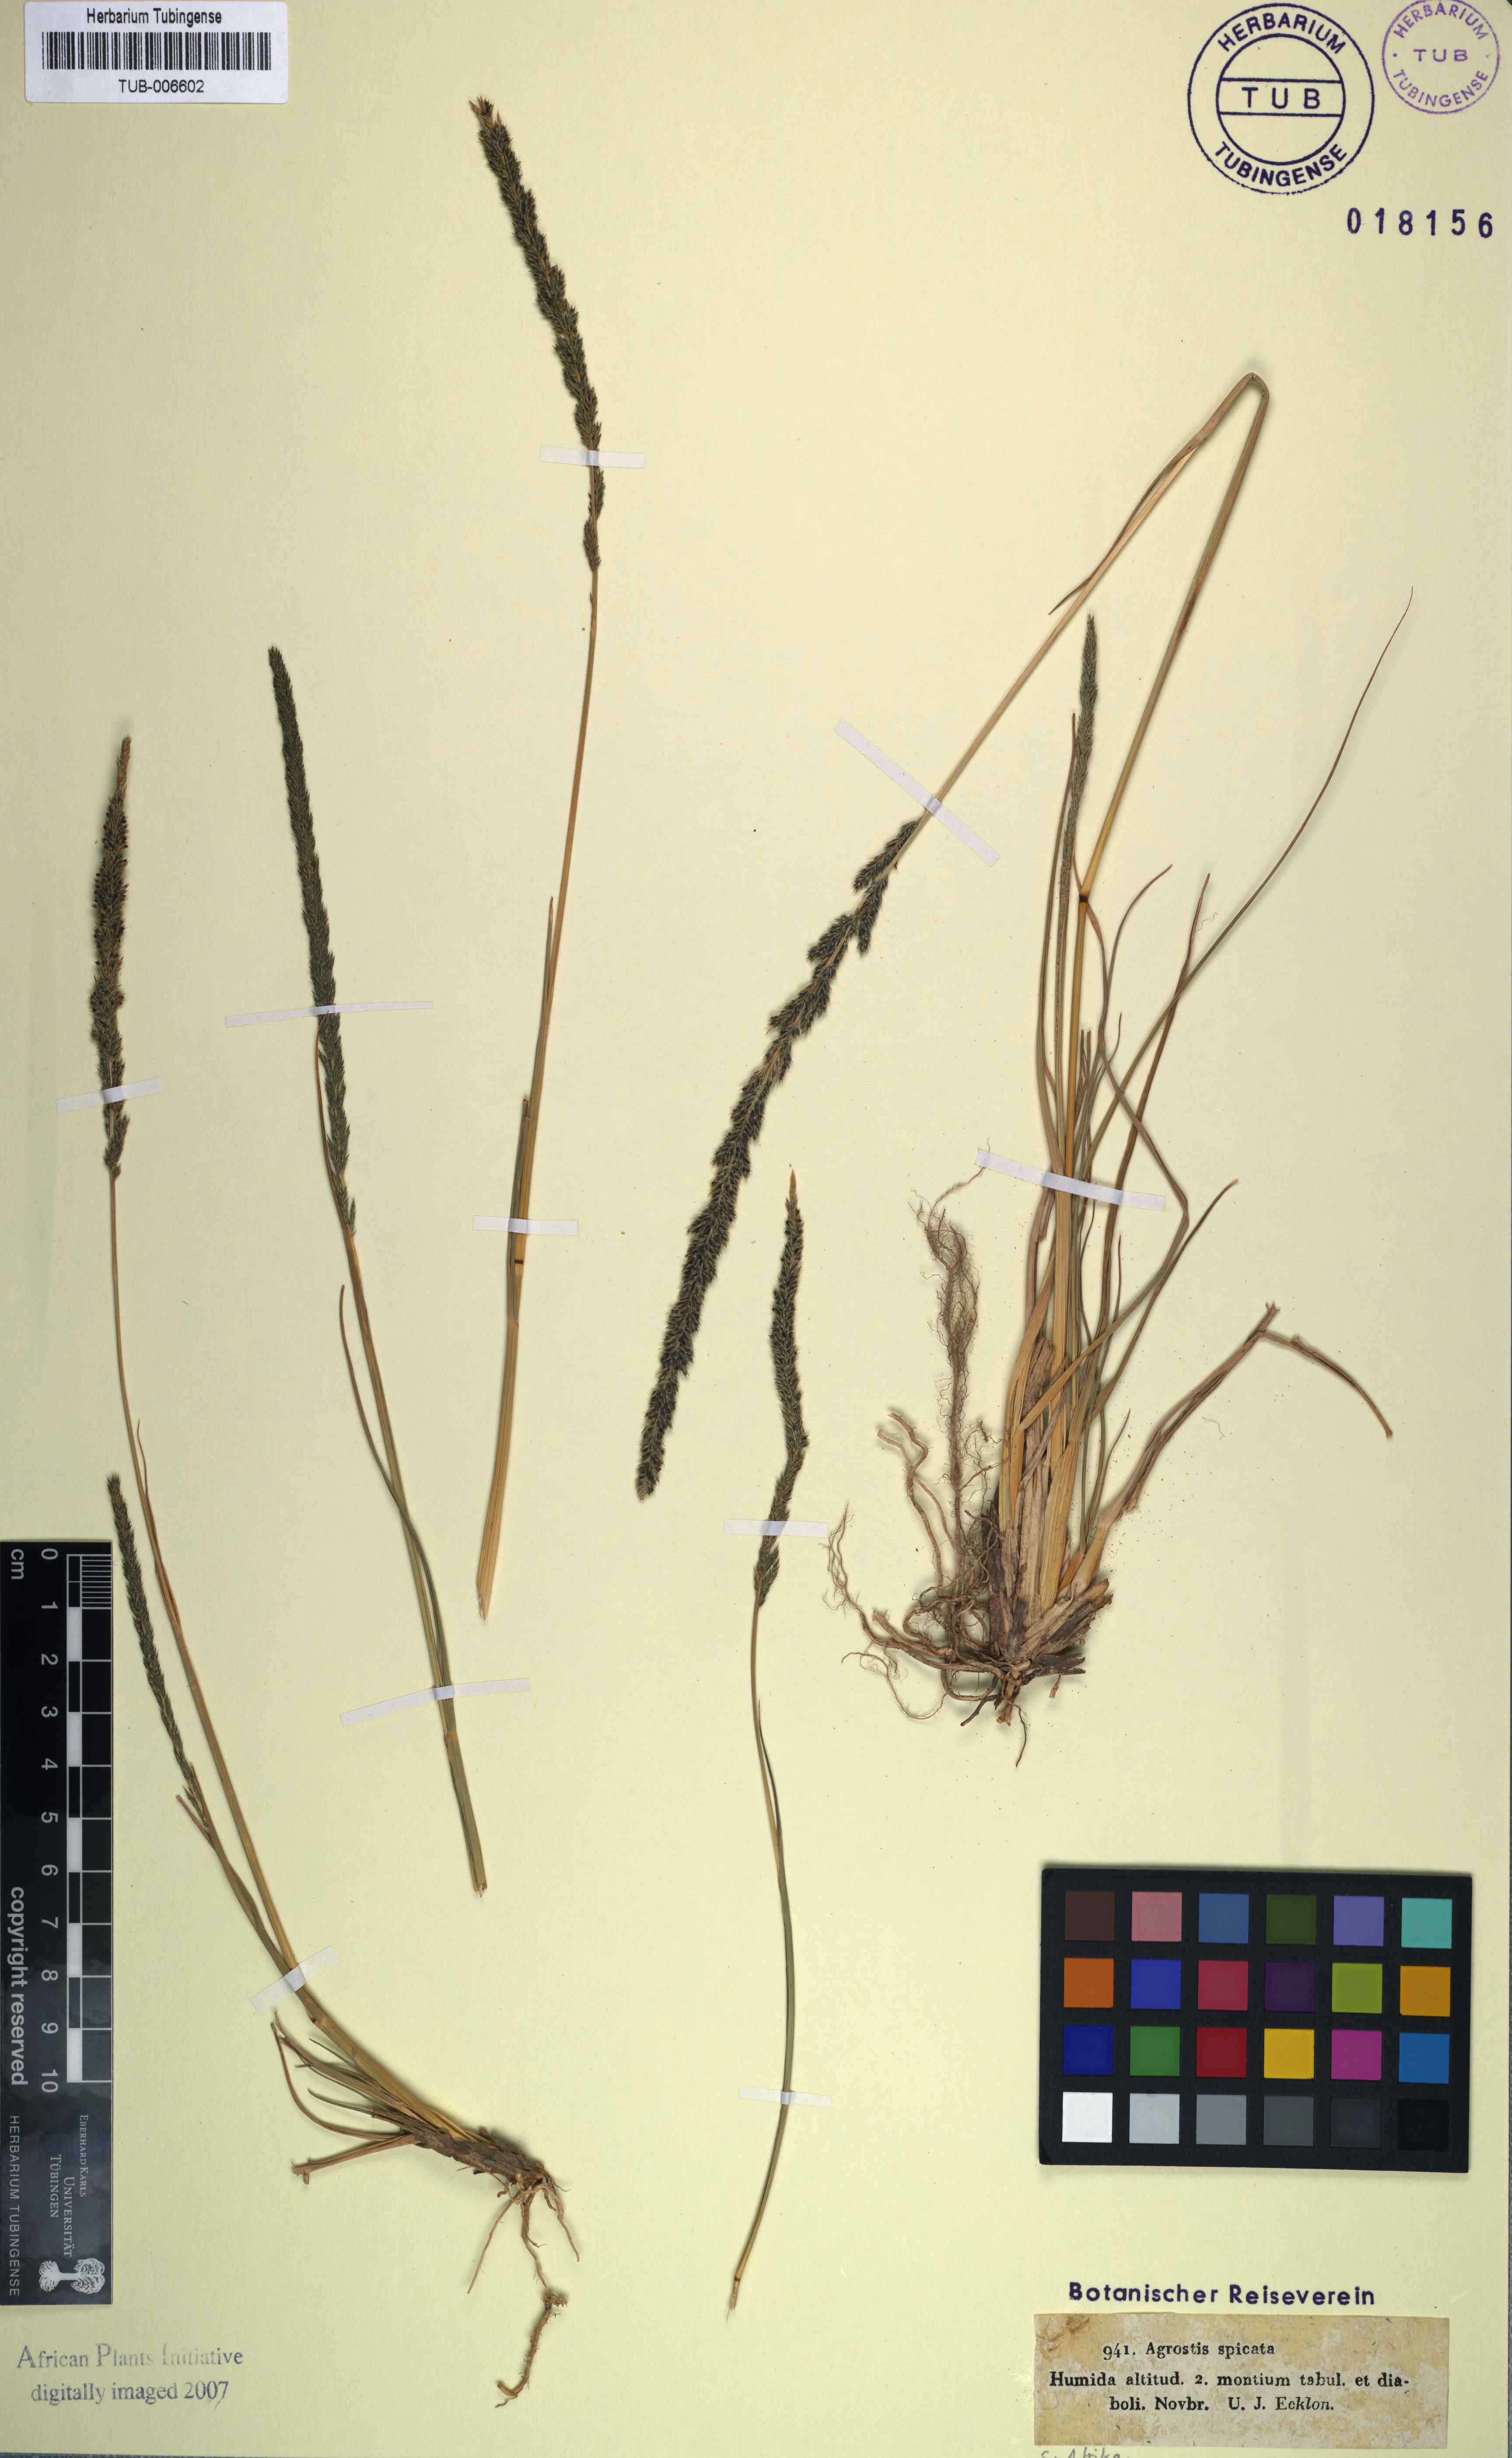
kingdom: Plantae
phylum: Tracheophyta
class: Liliopsida
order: Poales
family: Poaceae
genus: Sporobolus
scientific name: Sporobolus africanus
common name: African dropseed
